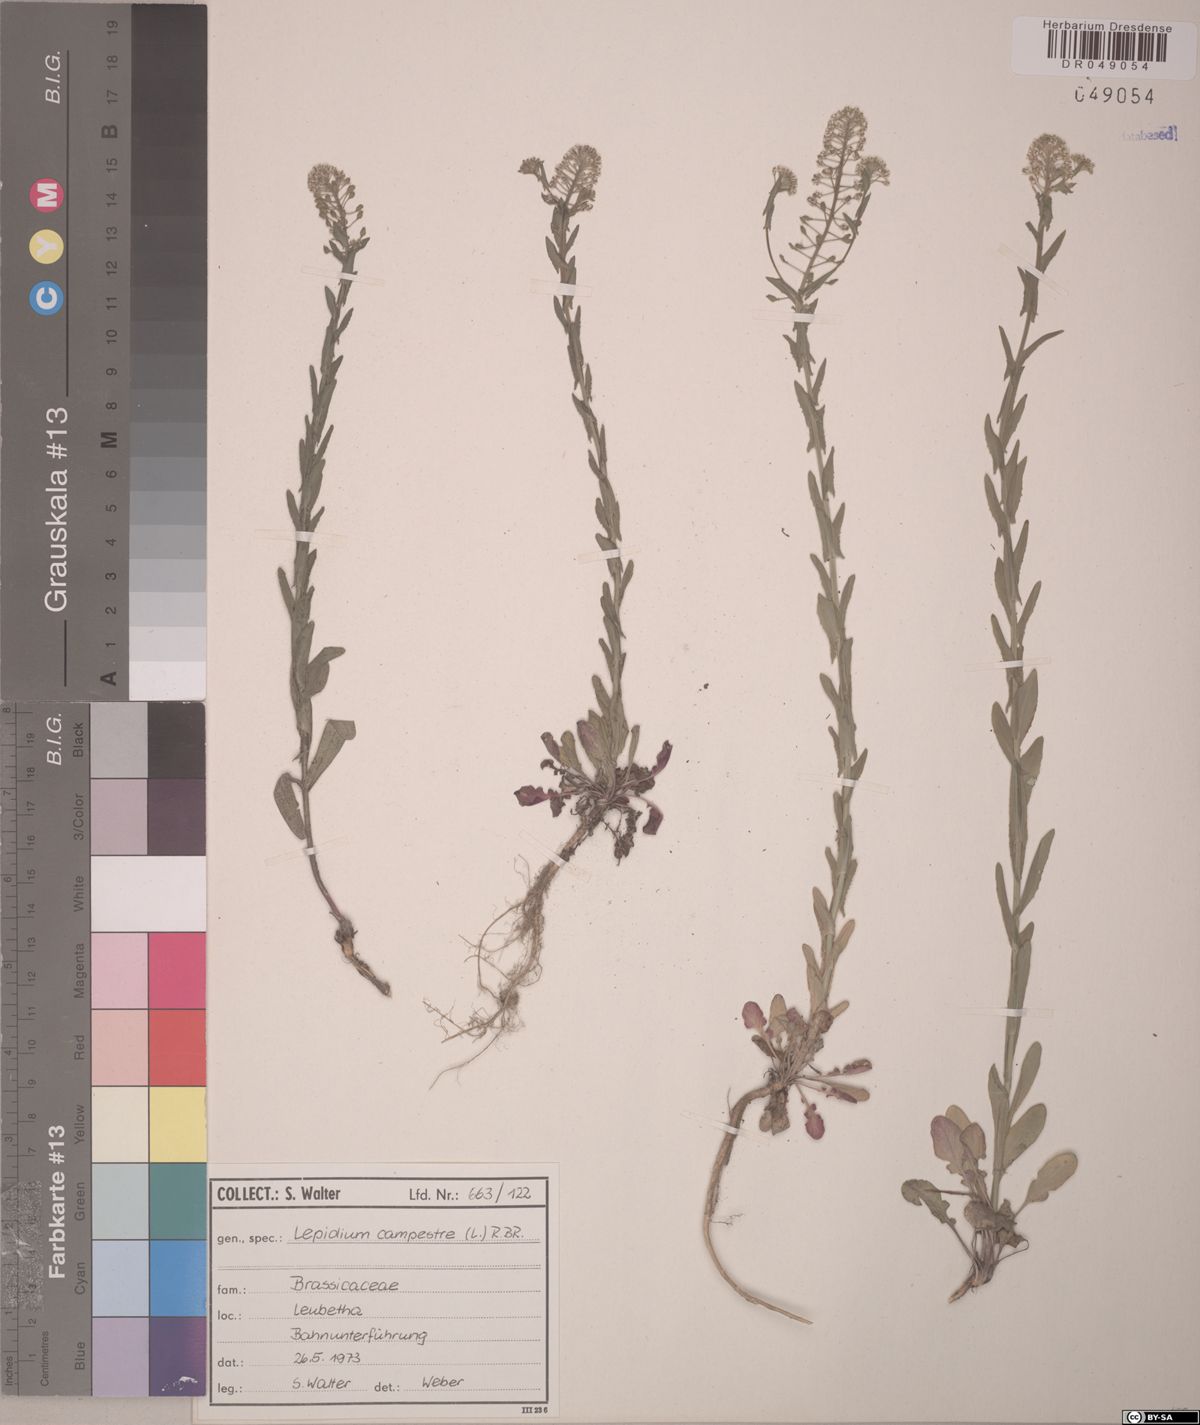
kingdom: Plantae
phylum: Tracheophyta
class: Magnoliopsida
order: Brassicales
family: Brassicaceae
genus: Lepidium
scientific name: Lepidium campestre
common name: Field pepperwort
